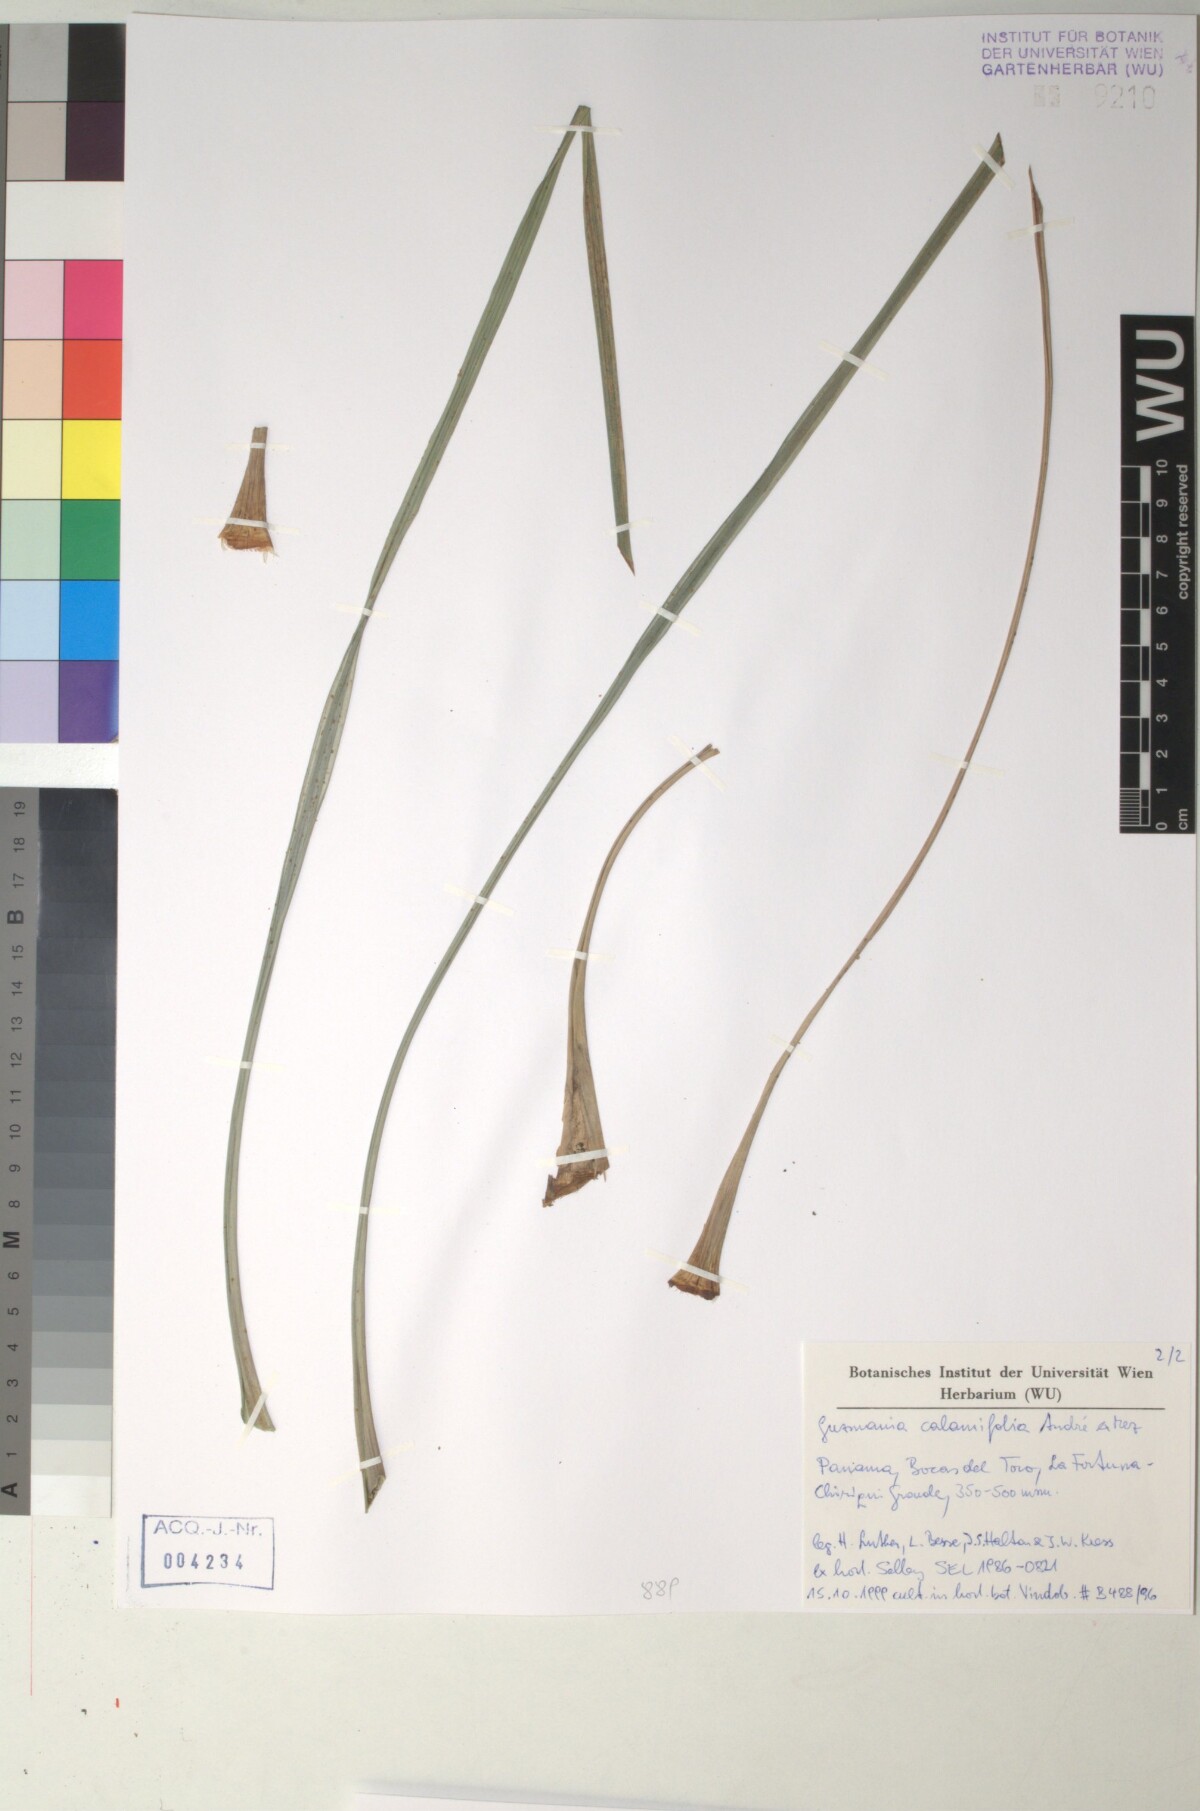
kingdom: Plantae
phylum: Tracheophyta
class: Liliopsida
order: Poales
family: Bromeliaceae
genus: Guzmania
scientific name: Guzmania calamifolia
